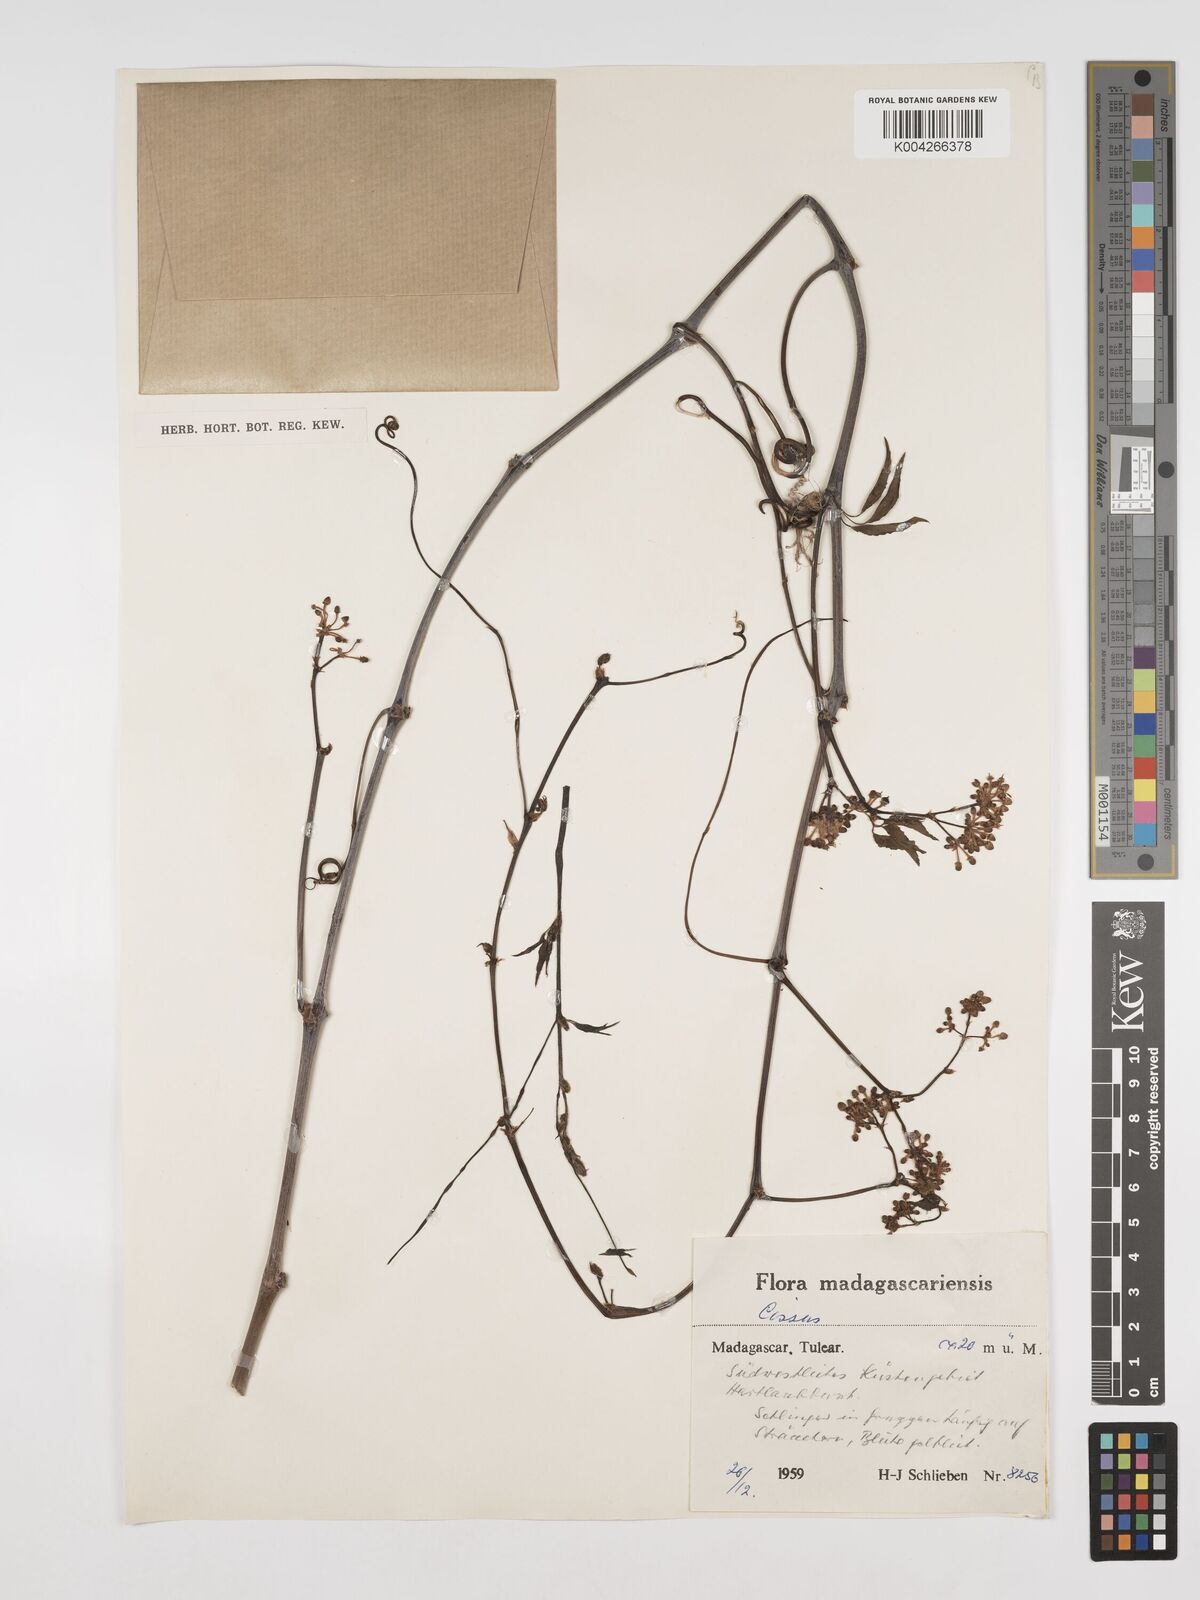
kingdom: Plantae
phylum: Tracheophyta
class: Magnoliopsida
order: Vitales
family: Vitaceae
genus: Cissus
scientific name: Cissus
